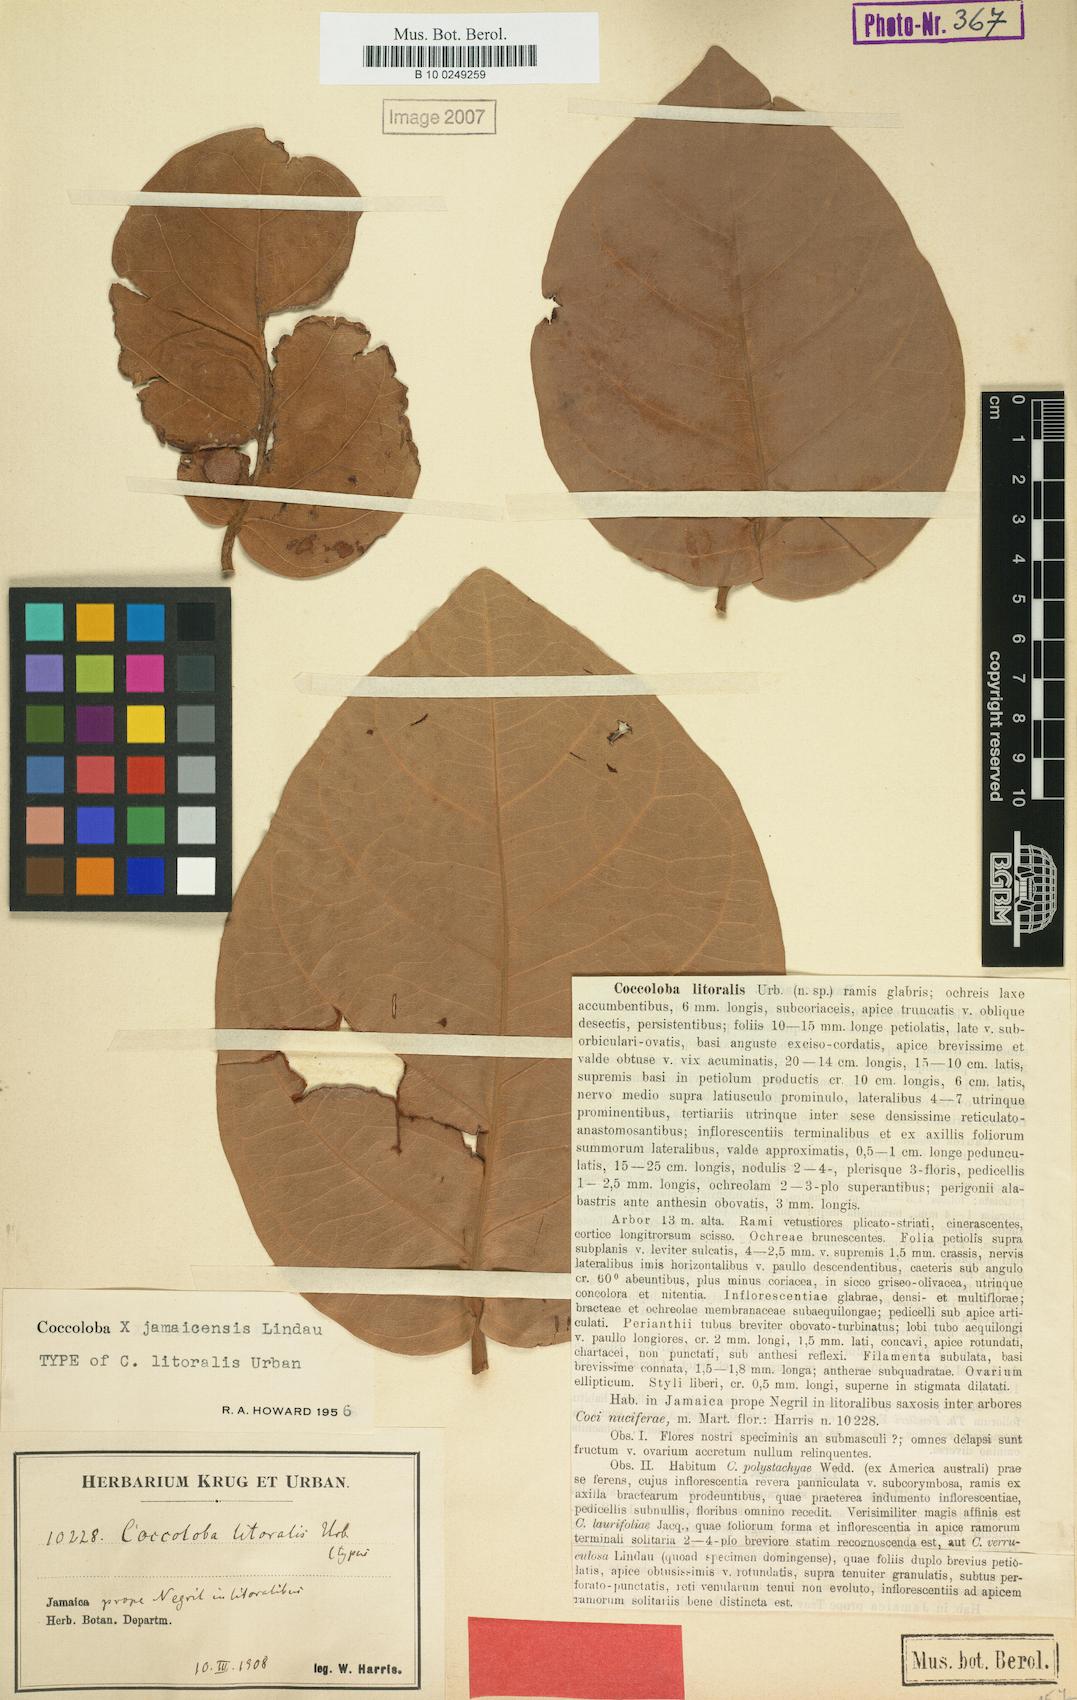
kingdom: Plantae
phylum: Tracheophyta
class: Magnoliopsida
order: Caryophyllales
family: Polygonaceae
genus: Coccoloba
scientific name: Coccoloba jamaicensis
